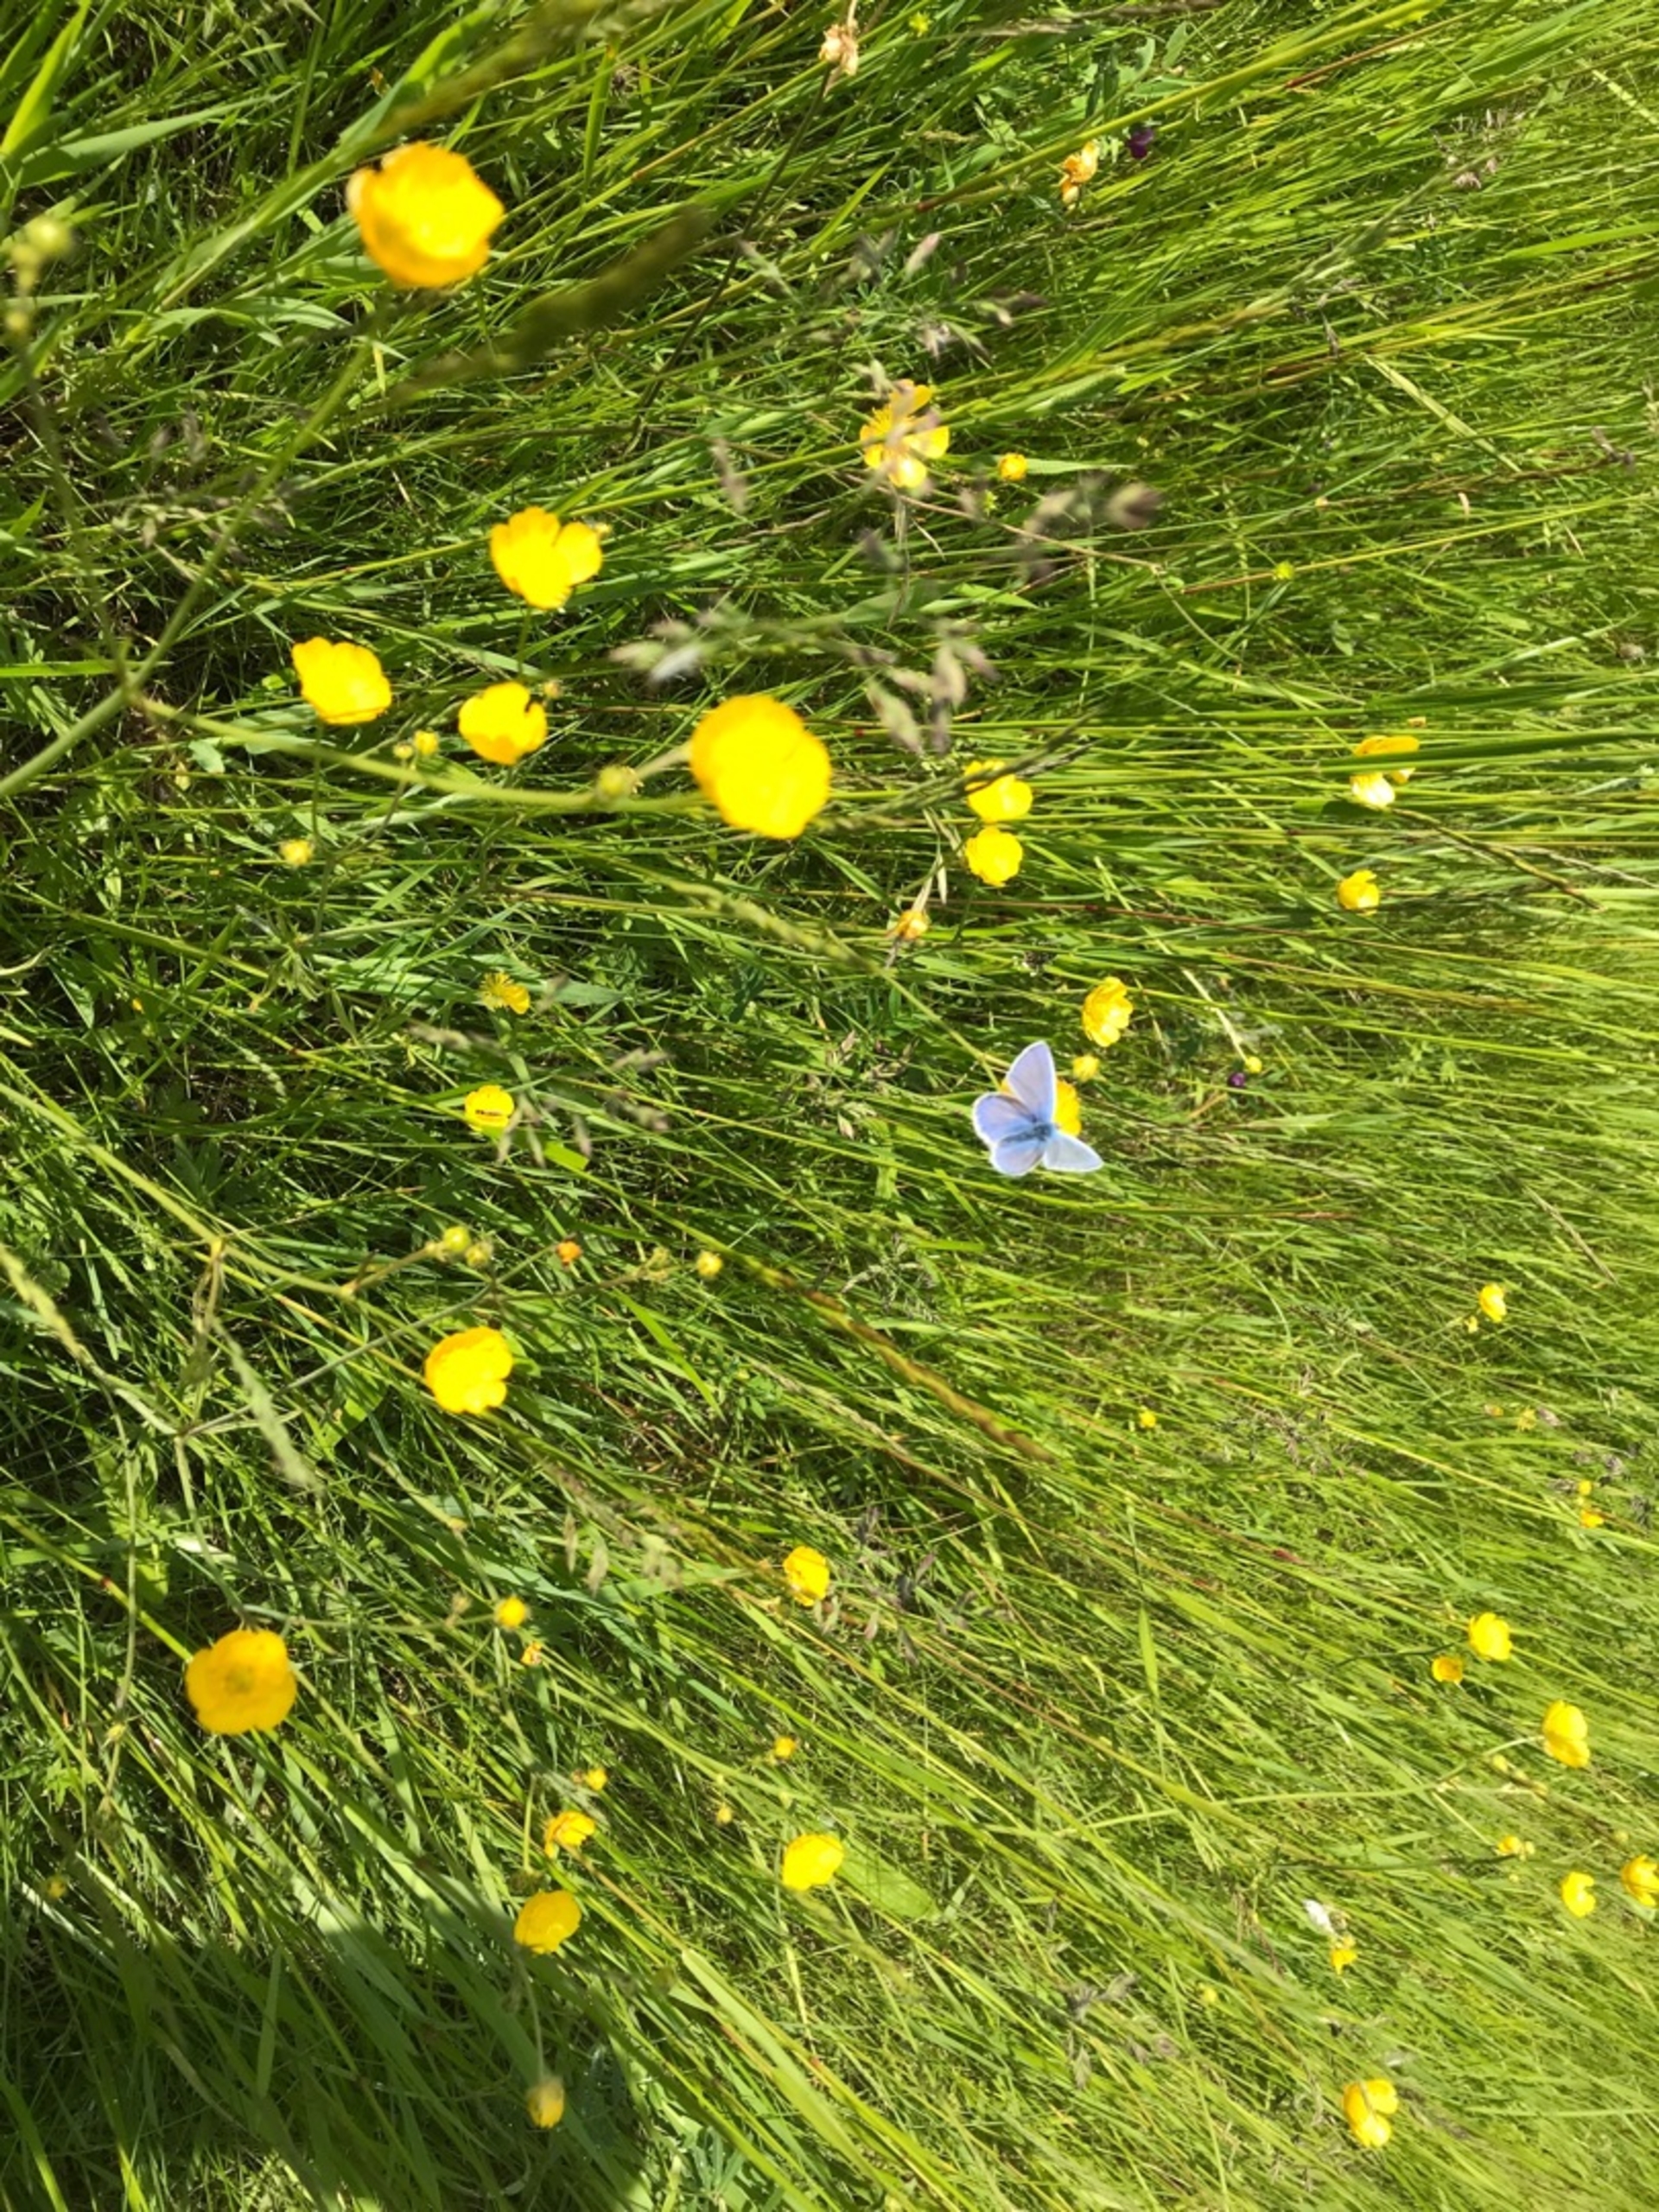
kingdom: Animalia
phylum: Arthropoda
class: Insecta
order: Lepidoptera
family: Lycaenidae
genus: Polyommatus
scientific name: Polyommatus icarus
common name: Almindelig blåfugl
